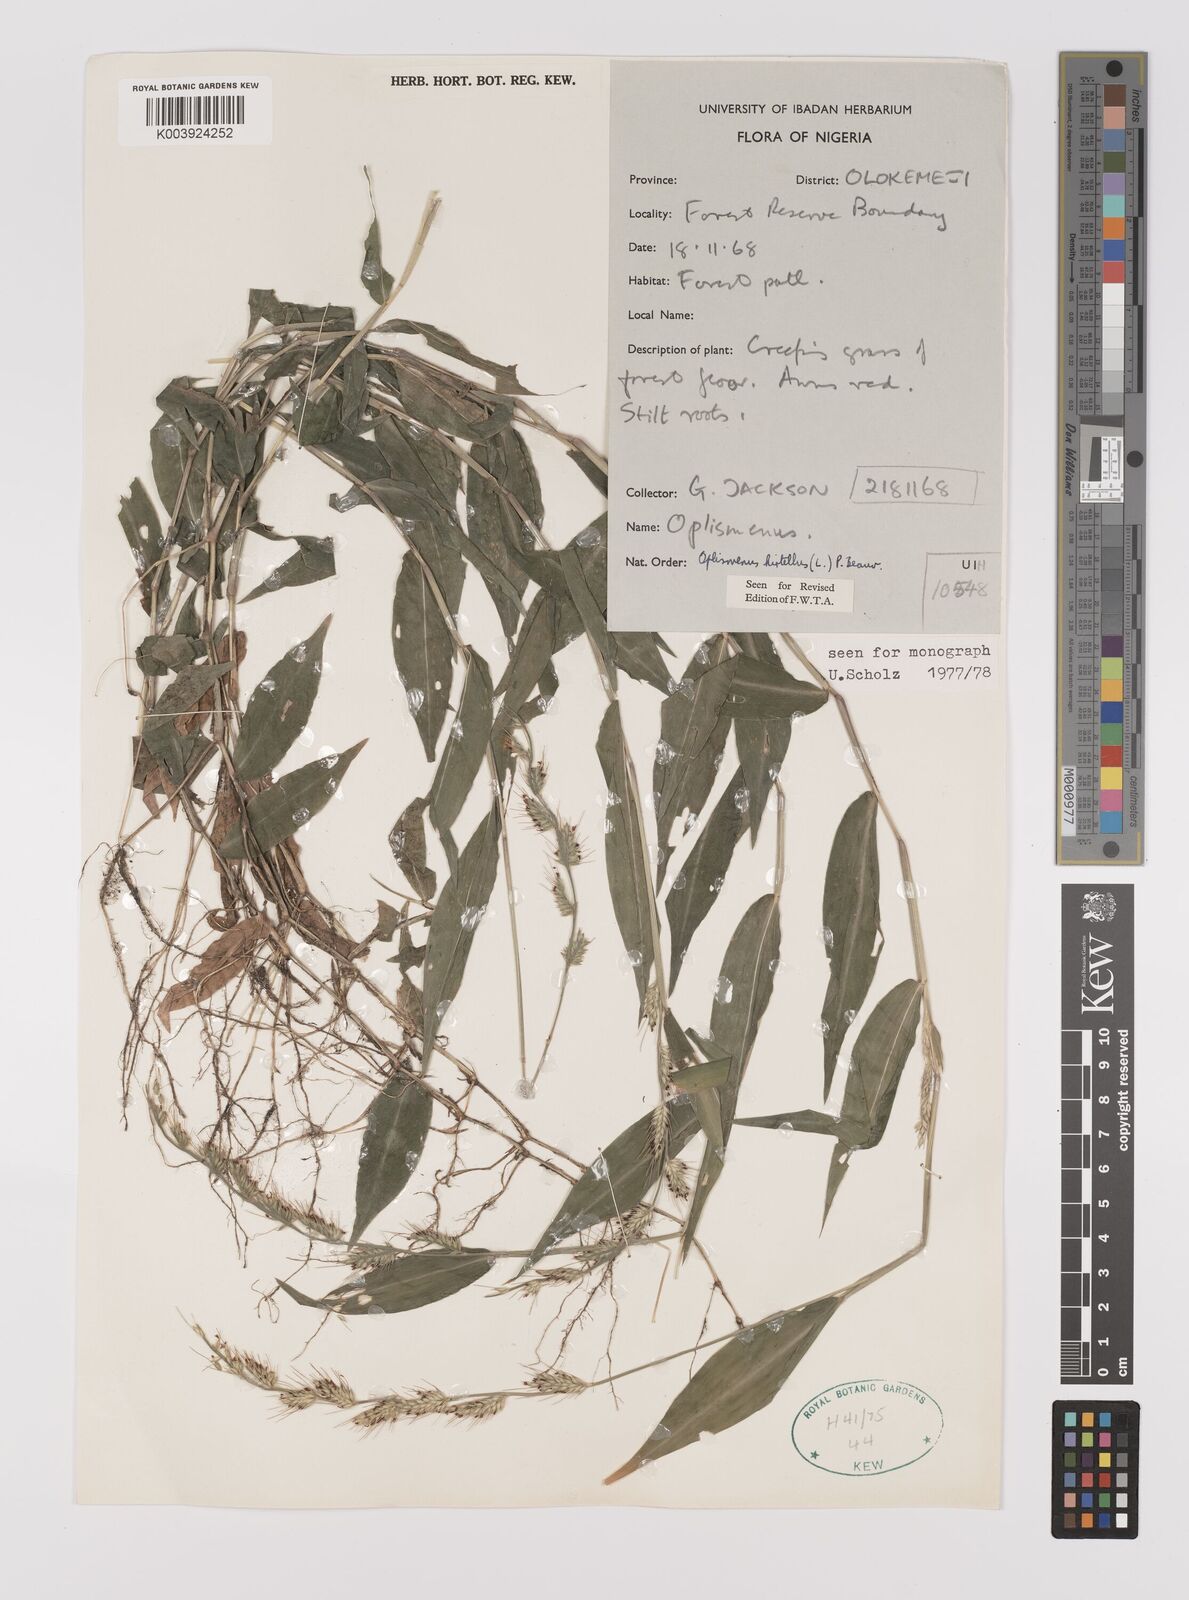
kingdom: Plantae
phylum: Tracheophyta
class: Liliopsida
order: Poales
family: Poaceae
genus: Oplismenus
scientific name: Oplismenus hirtellus
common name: Basketgrass
